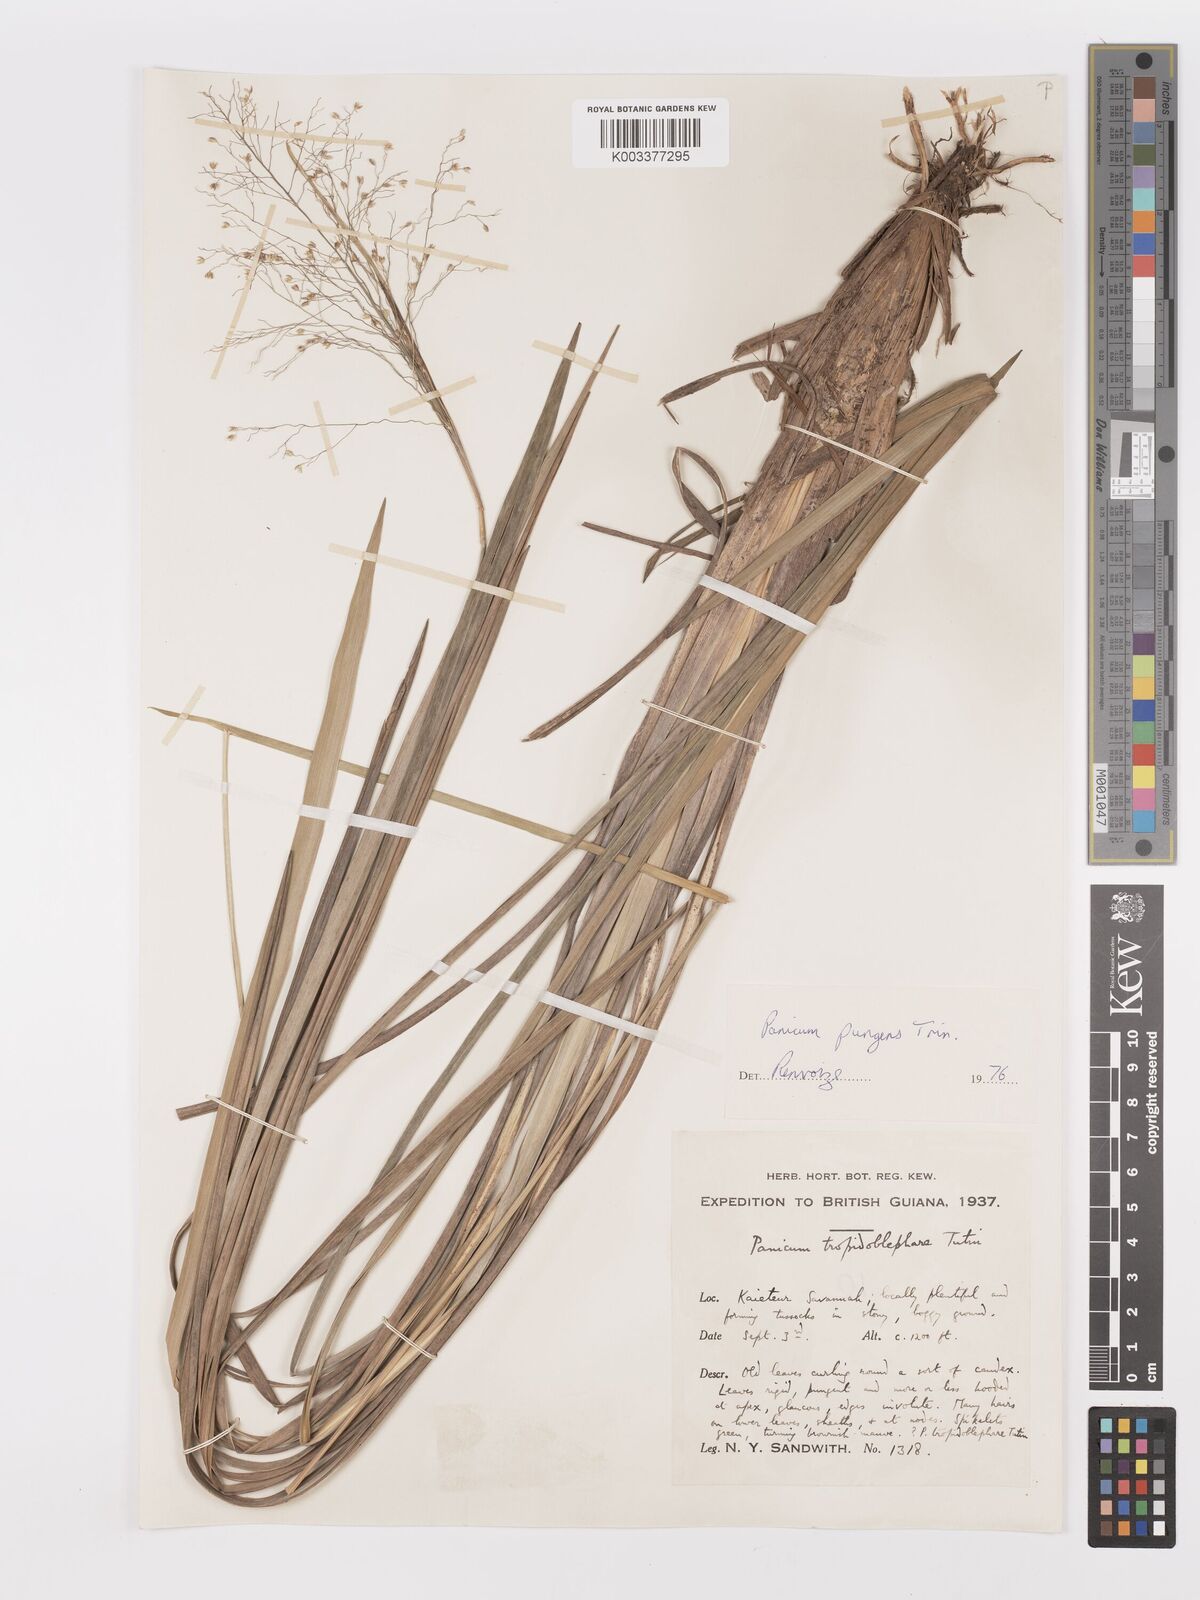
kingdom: Plantae
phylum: Tracheophyta
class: Liliopsida
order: Poales
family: Poaceae
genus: Apochloa
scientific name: Apochloa chnoodes
